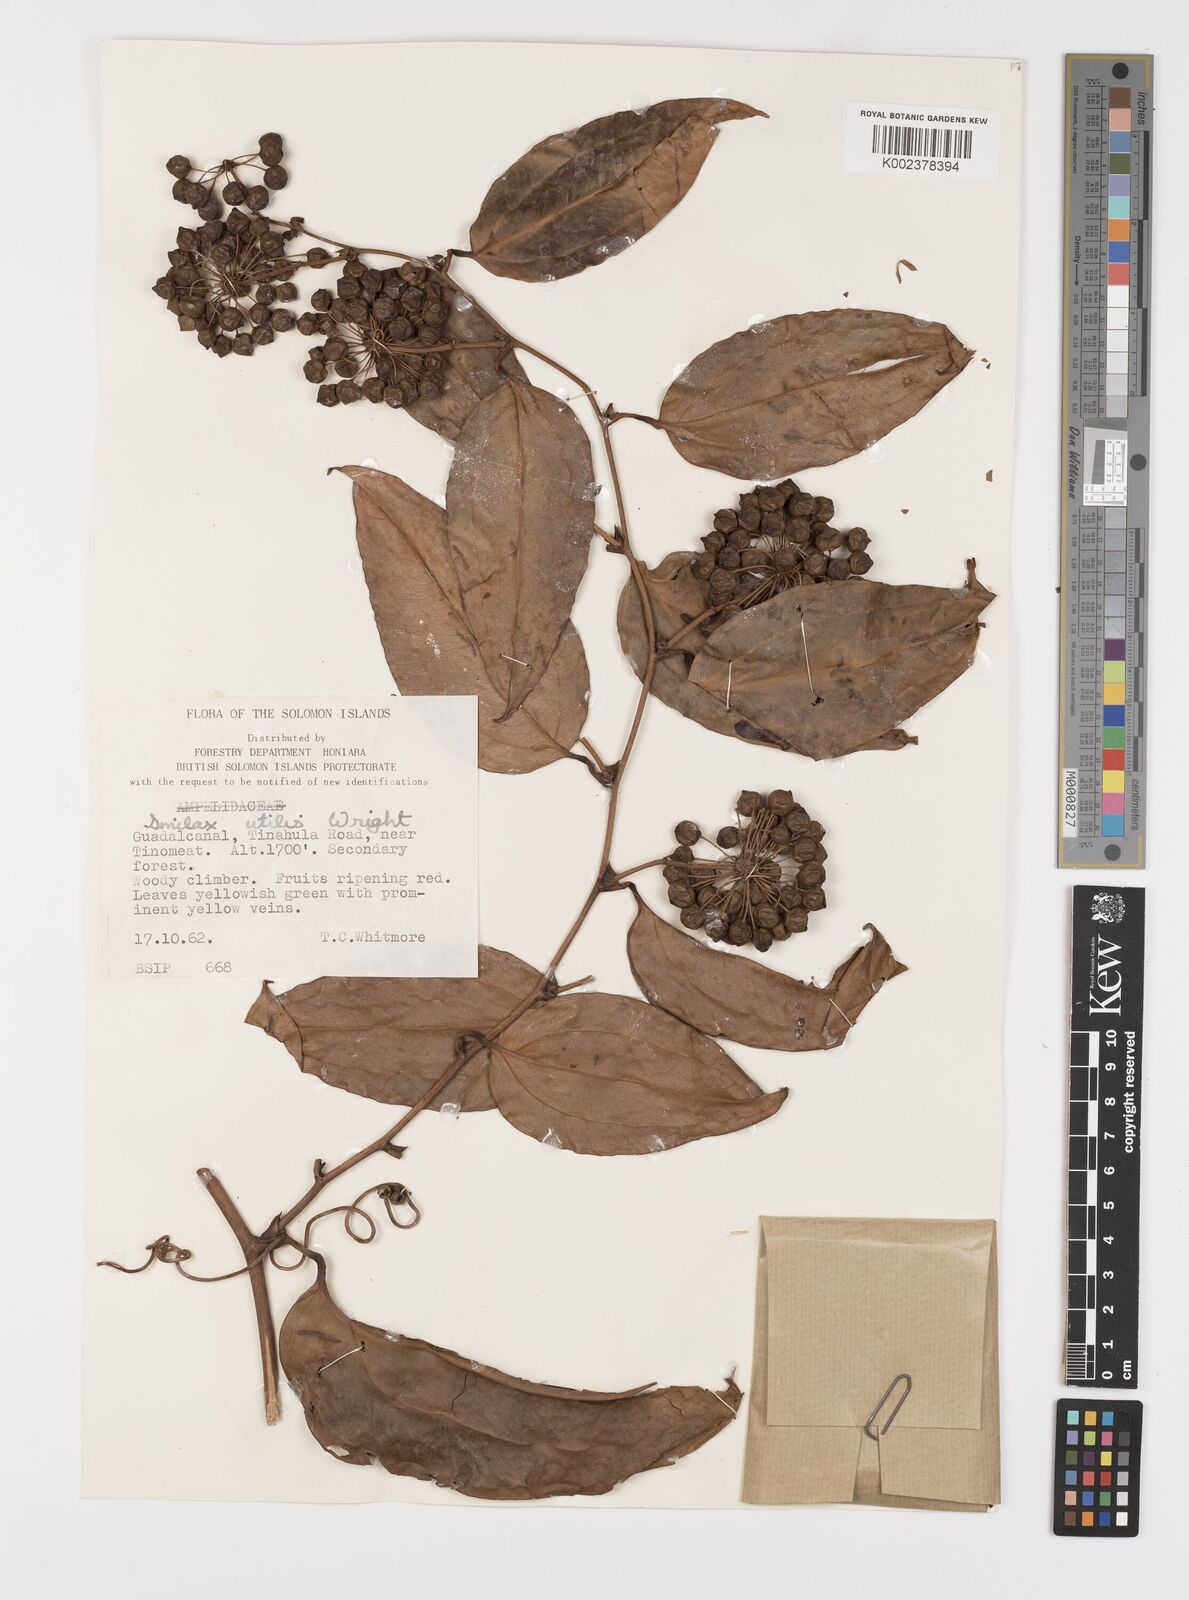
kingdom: Plantae
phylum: Tracheophyta
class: Liliopsida
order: Liliales
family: Smilacaceae
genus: Smilax
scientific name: Smilax ornata
